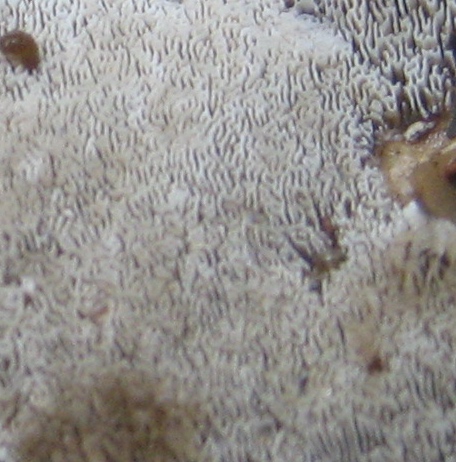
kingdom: Fungi
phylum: Basidiomycota
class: Agaricomycetes
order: Polyporales
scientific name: Polyporales
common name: poresvampordenen
